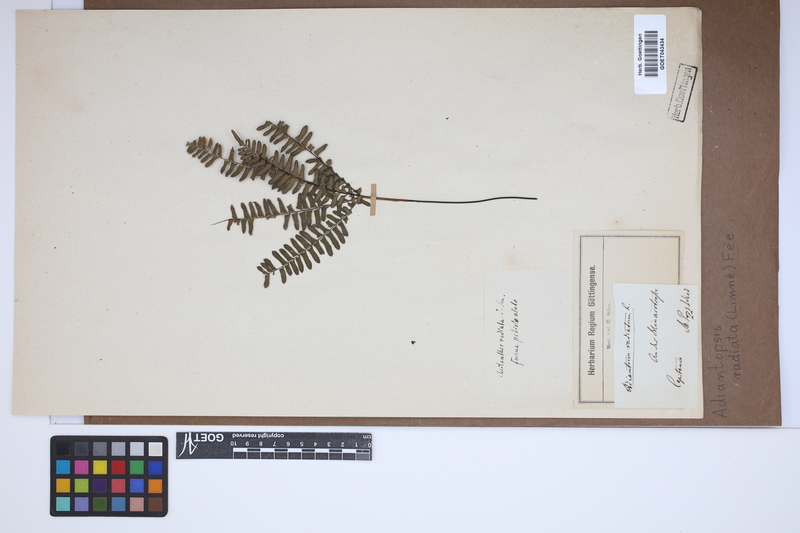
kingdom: Plantae
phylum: Tracheophyta
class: Polypodiopsida
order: Polypodiales
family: Pteridaceae
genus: Adiantopsis
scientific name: Adiantopsis radiata
